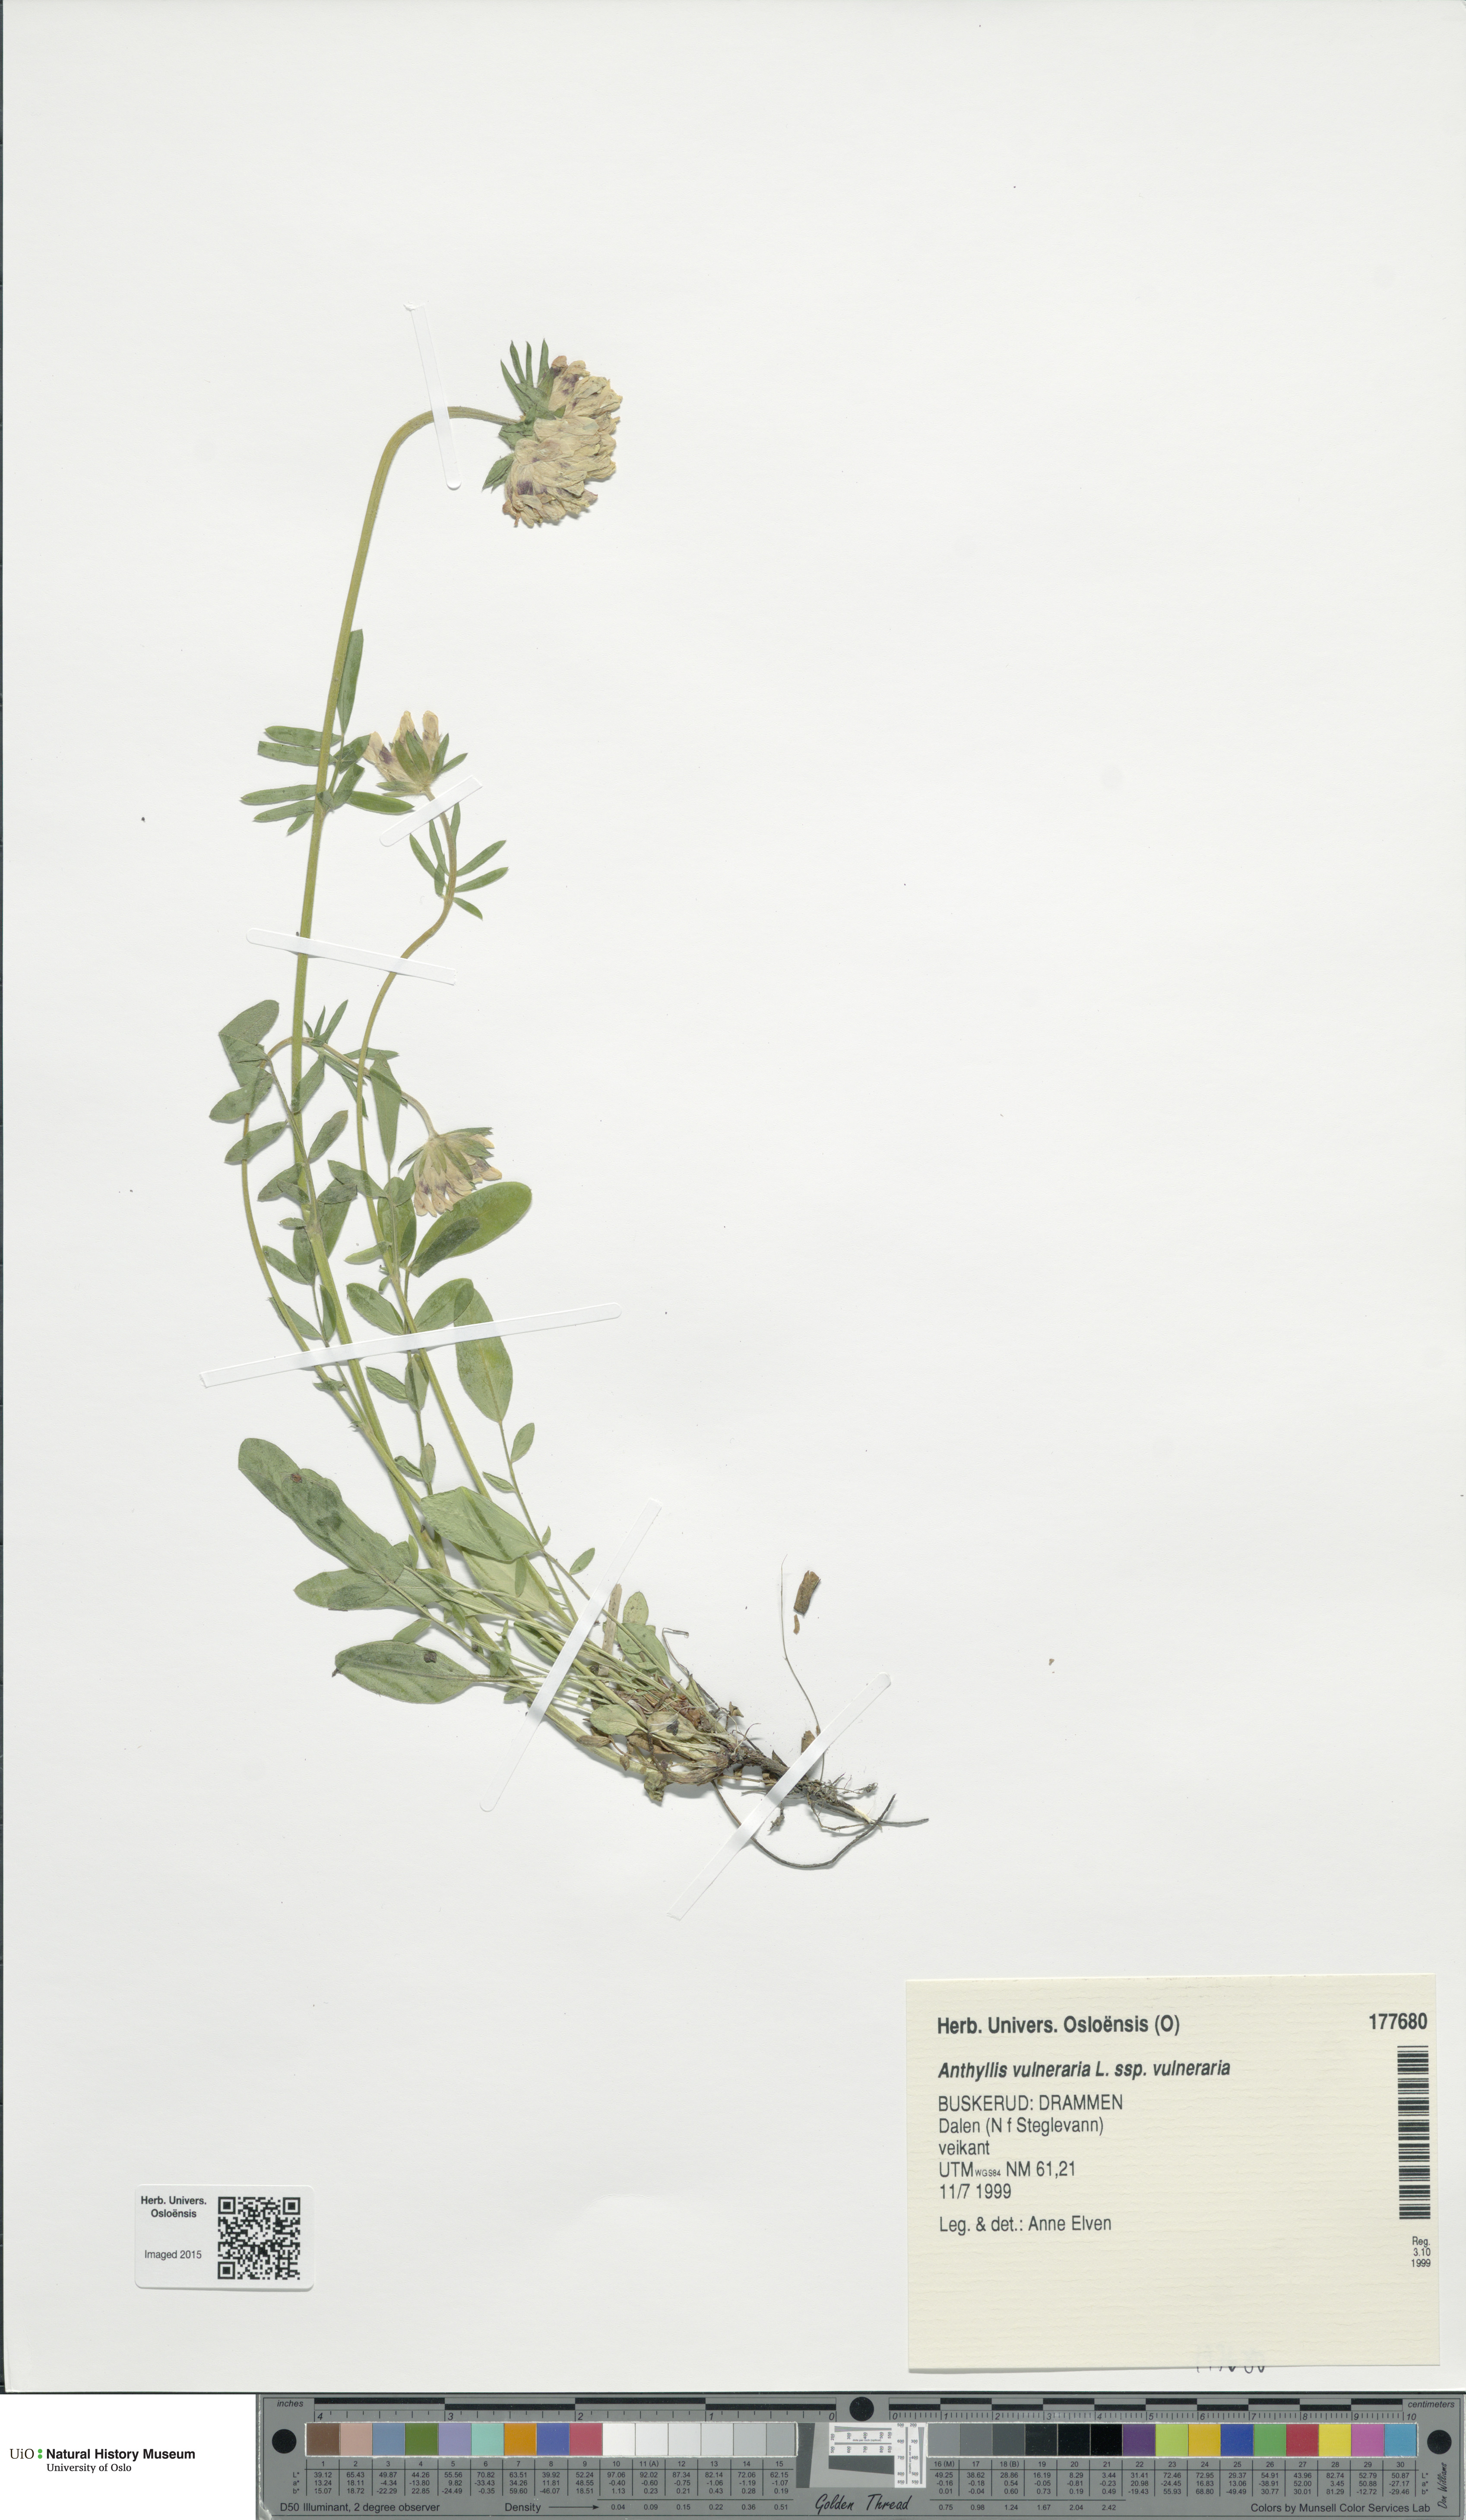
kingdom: Plantae
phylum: Tracheophyta
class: Magnoliopsida
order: Fabales
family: Fabaceae
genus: Anthyllis
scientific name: Anthyllis vulneraria
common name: Kidney vetch
